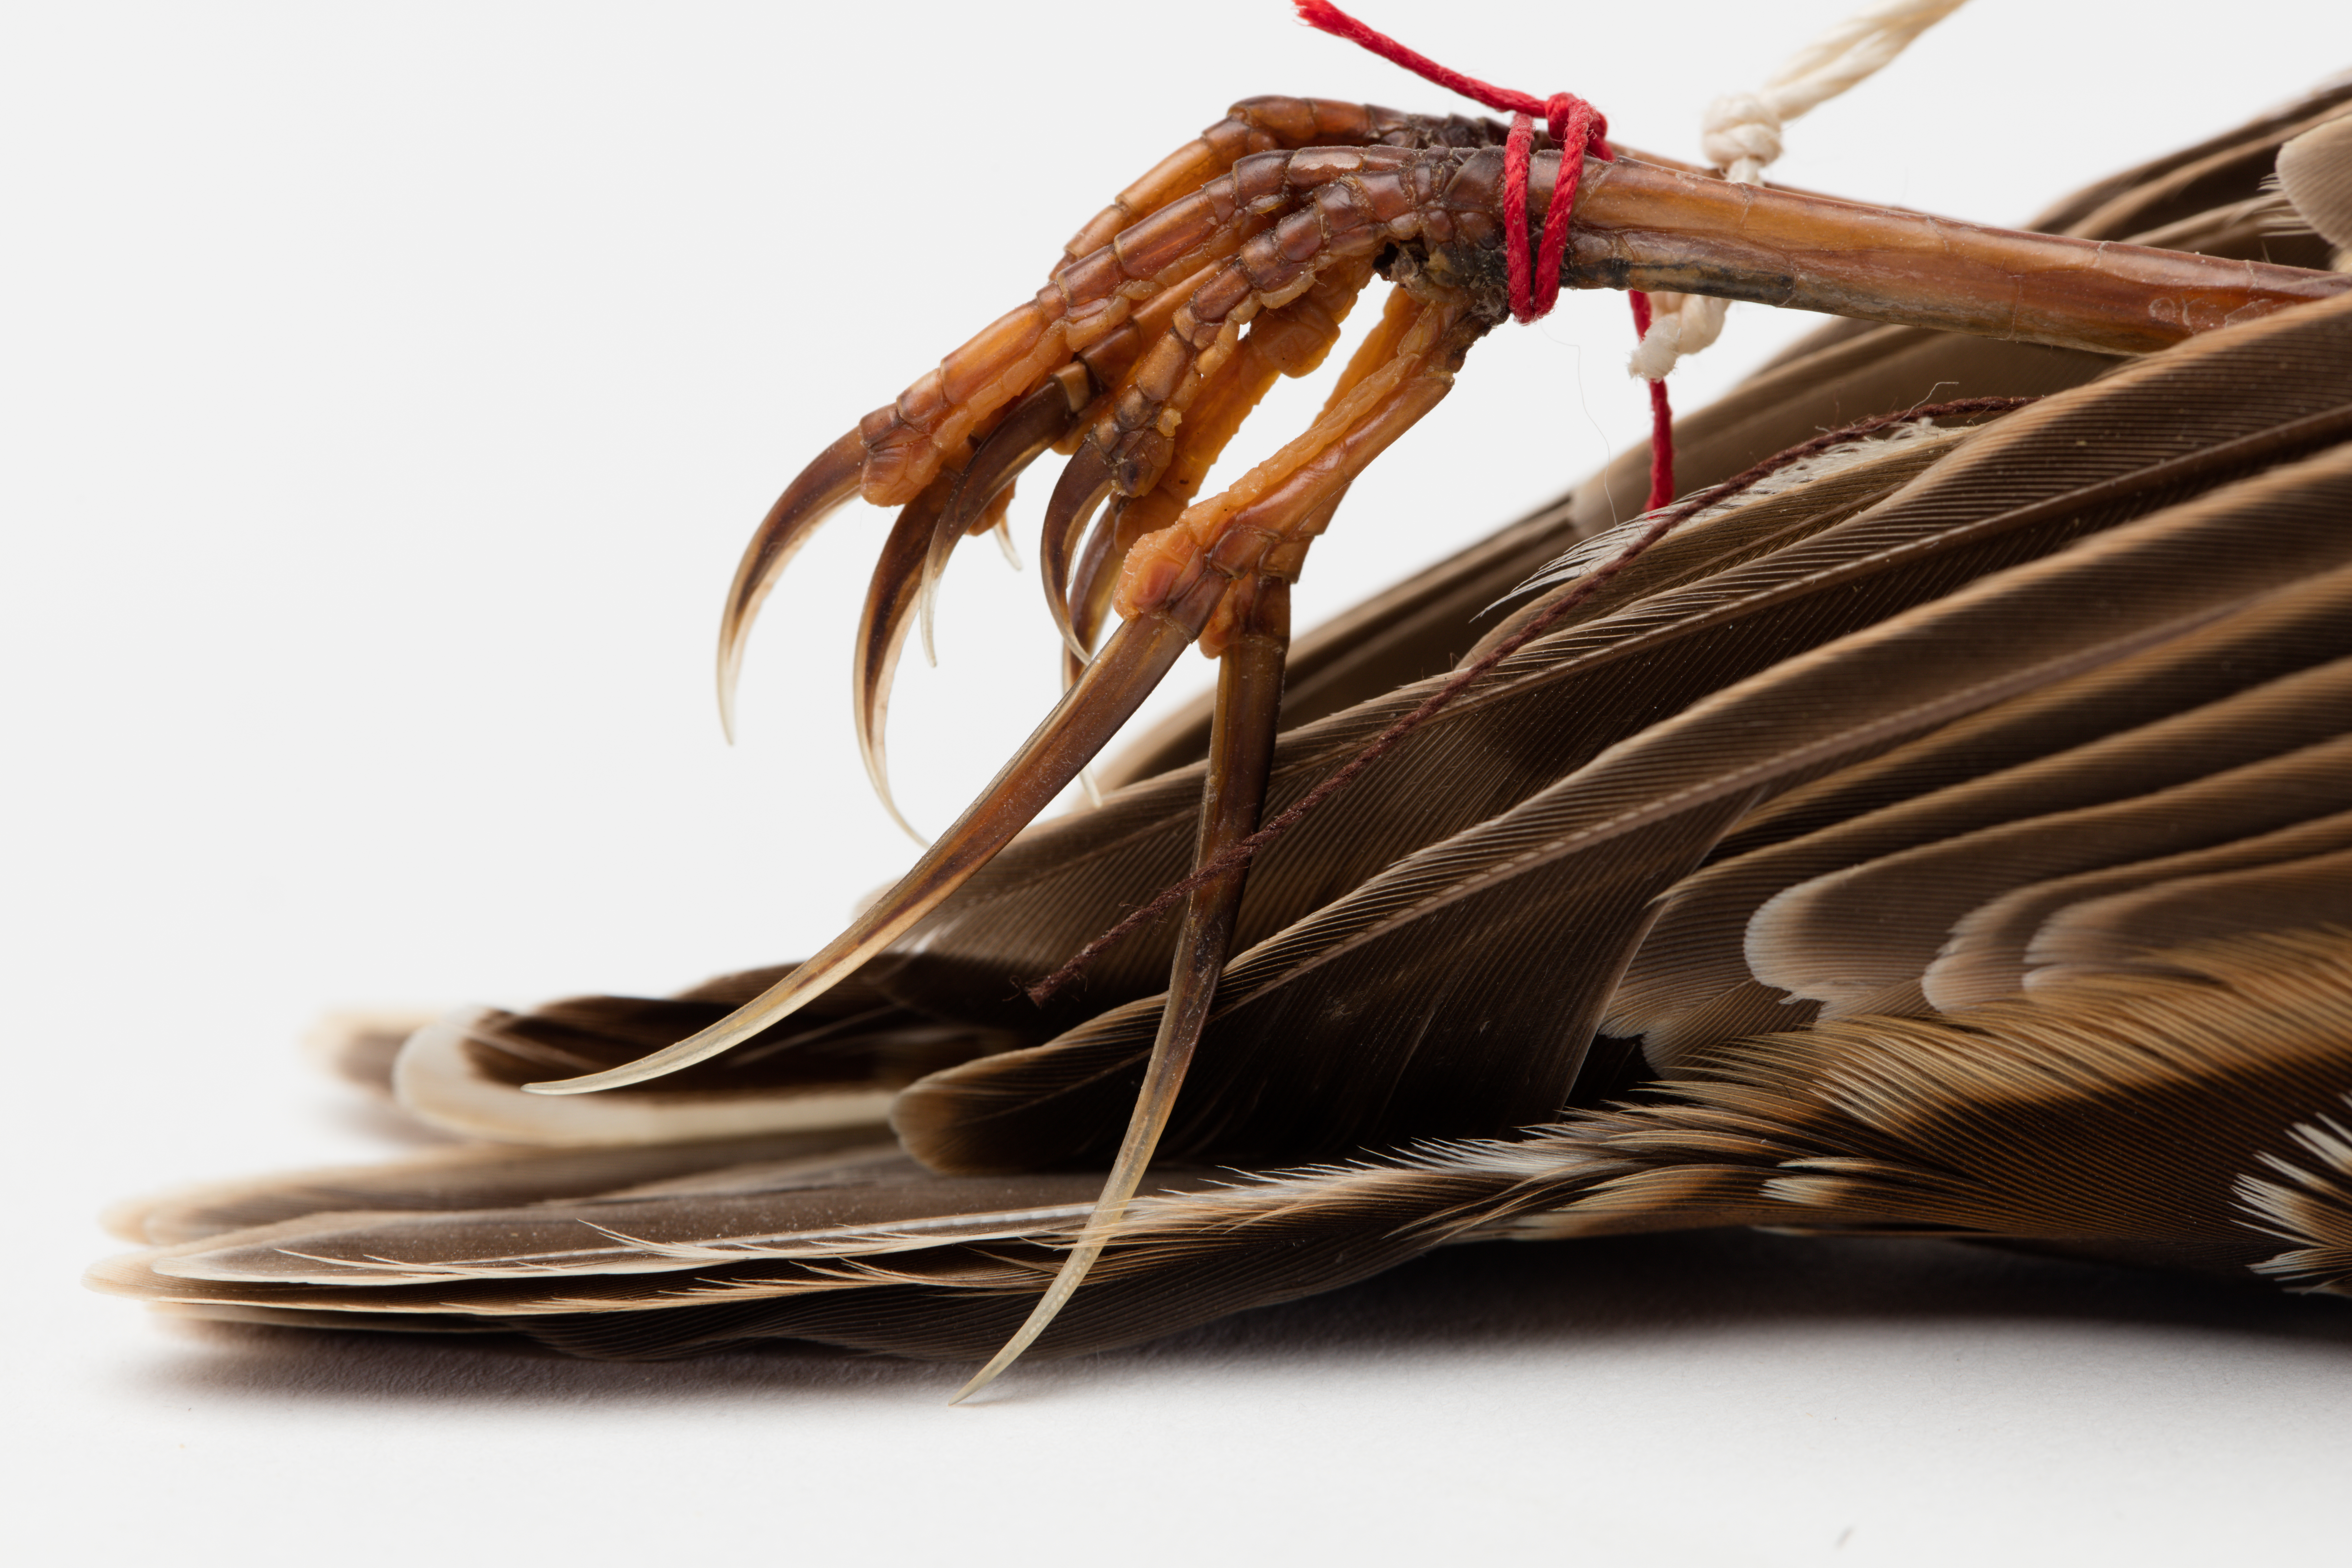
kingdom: Animalia
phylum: Chordata
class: Aves
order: Passeriformes
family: Alaudidae
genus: Alauda
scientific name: Alauda arvensis
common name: Eurasian skylark
